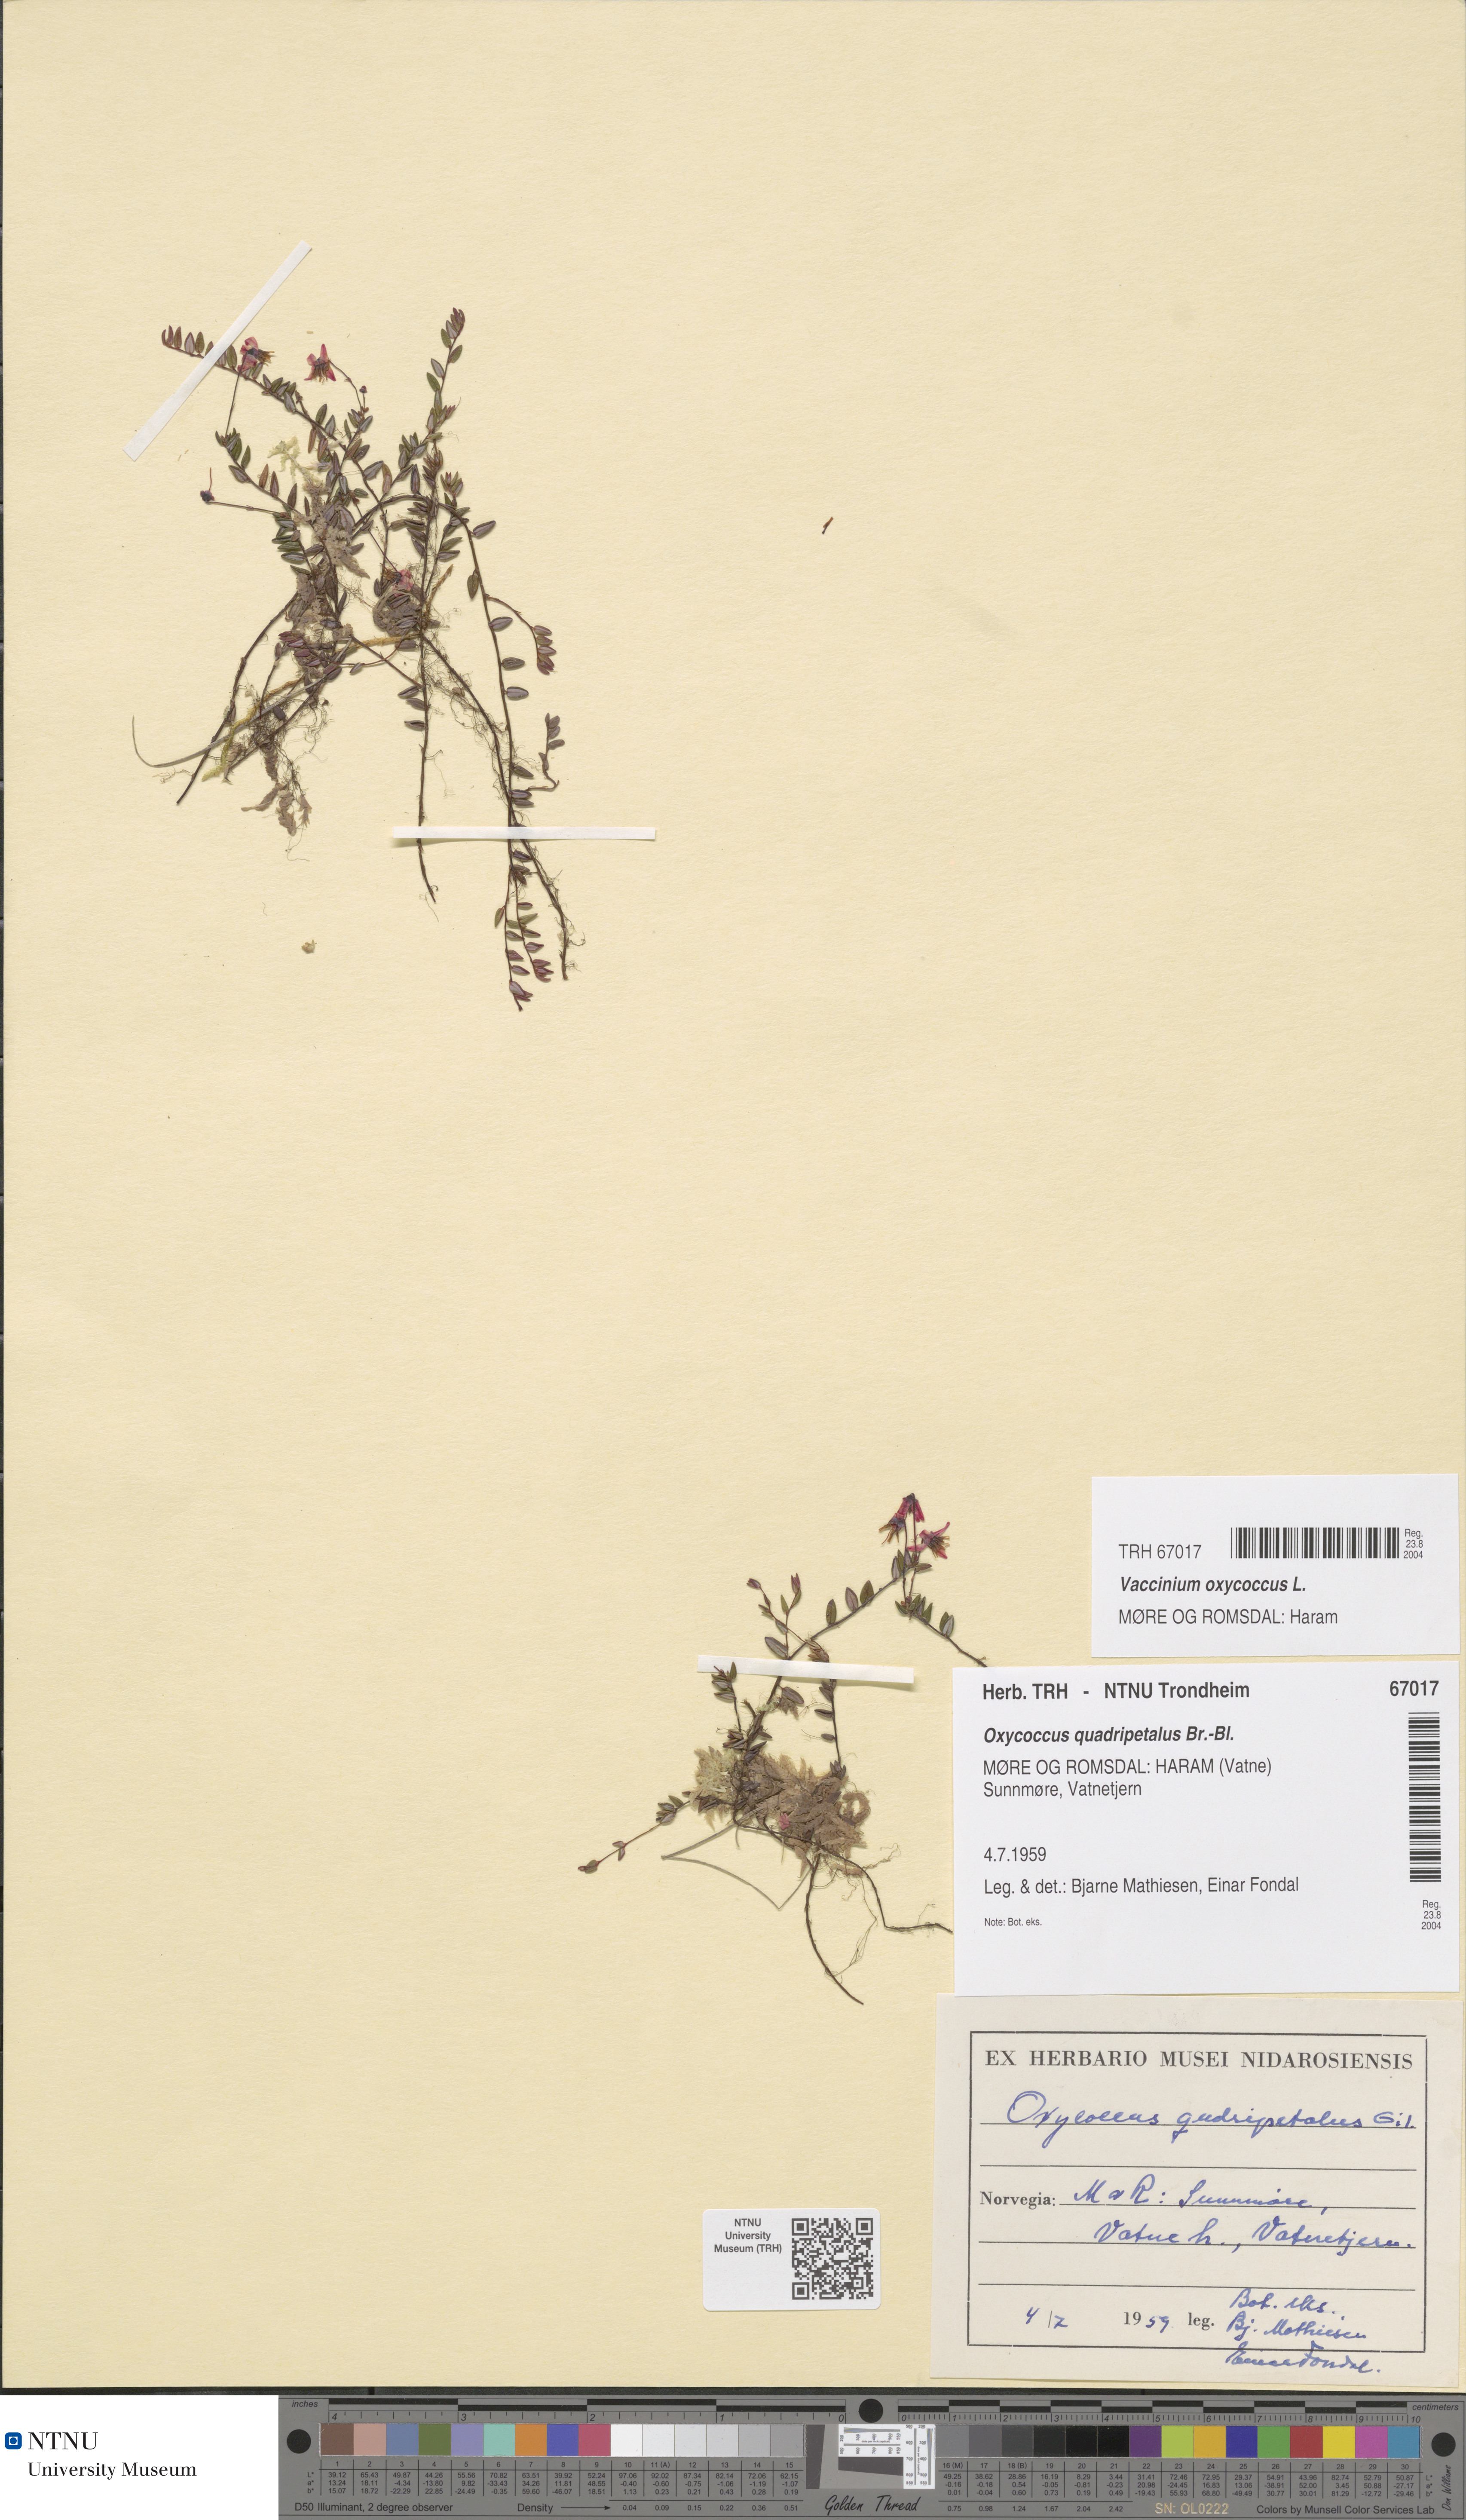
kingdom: Plantae
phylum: Tracheophyta
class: Magnoliopsida
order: Ericales
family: Ericaceae
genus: Vaccinium
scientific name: Vaccinium oxycoccos
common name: Cranberry
